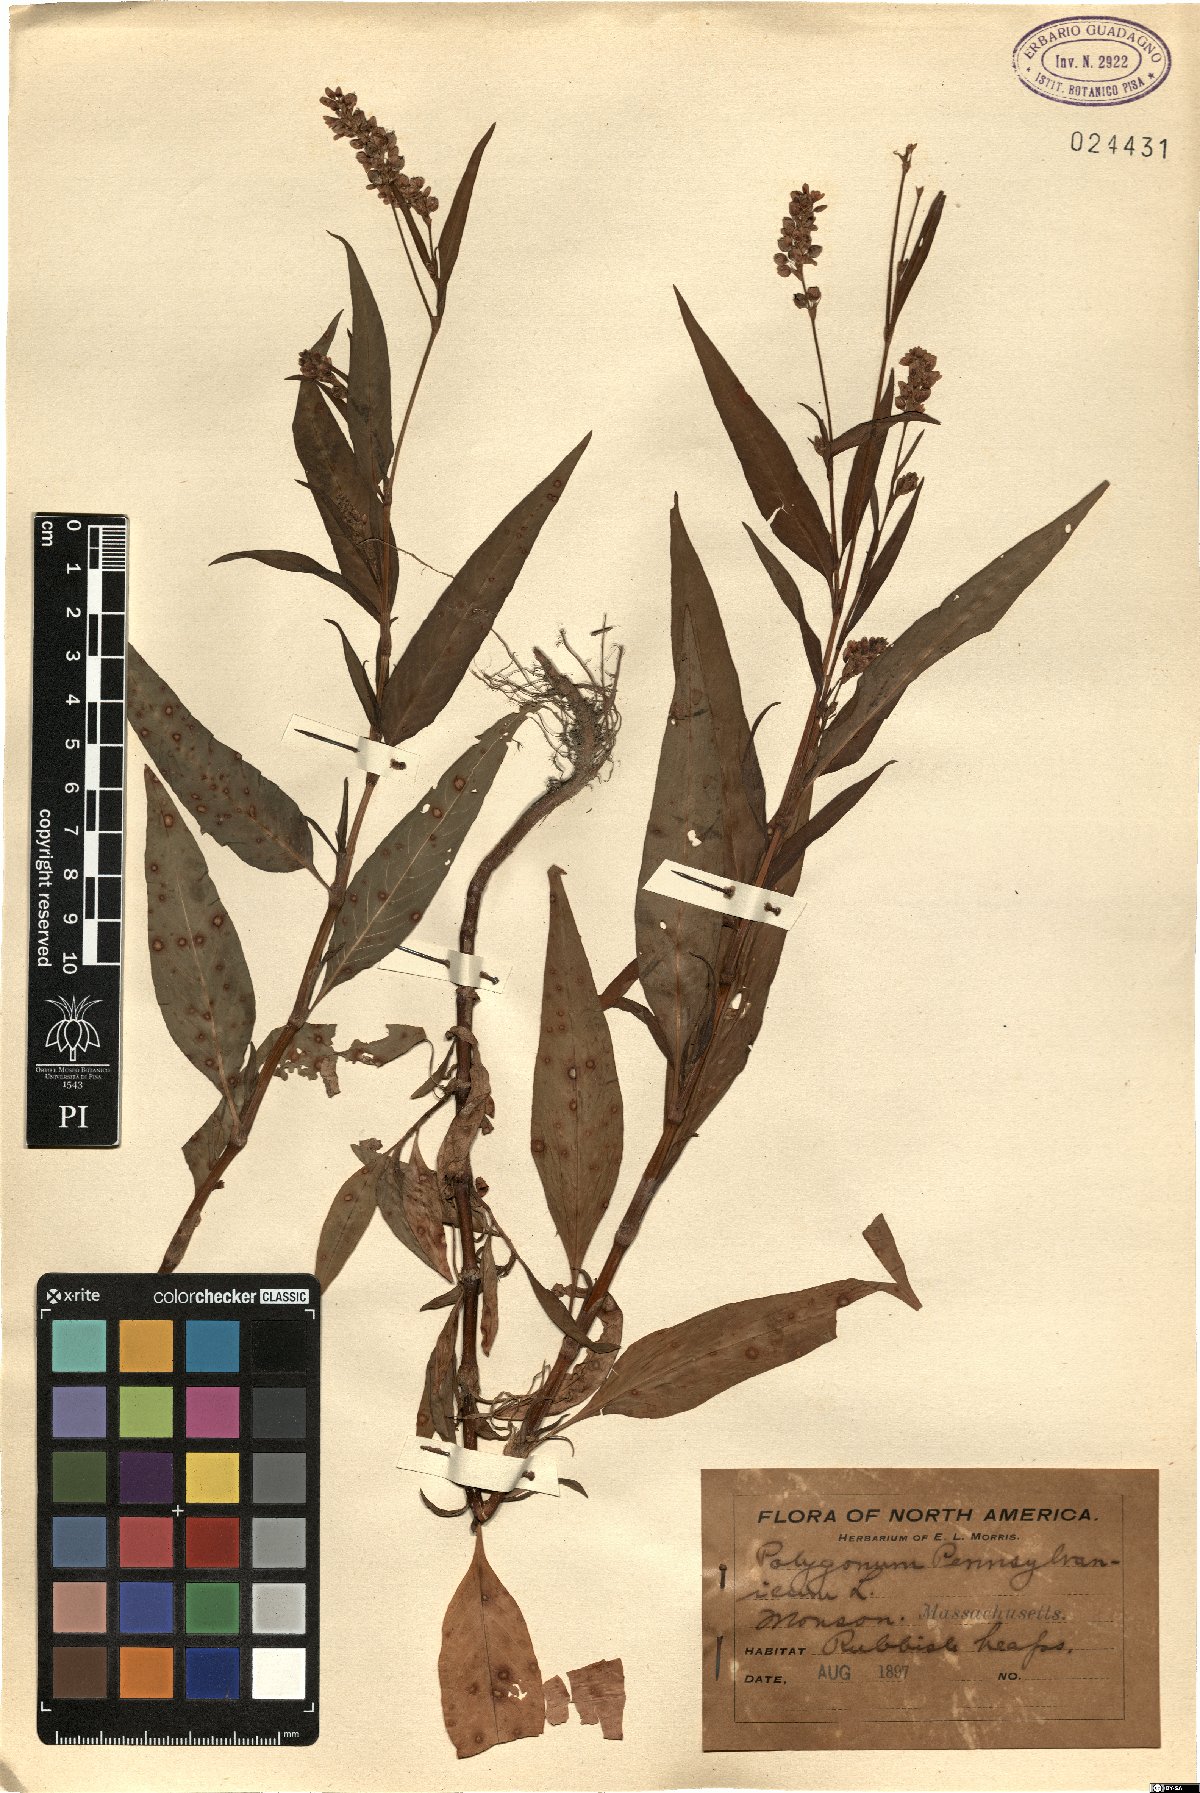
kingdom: Plantae
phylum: Tracheophyta
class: Magnoliopsida
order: Caryophyllales
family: Polygonaceae
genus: Persicaria
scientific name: Persicaria pensylvanica
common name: Pinkweed
